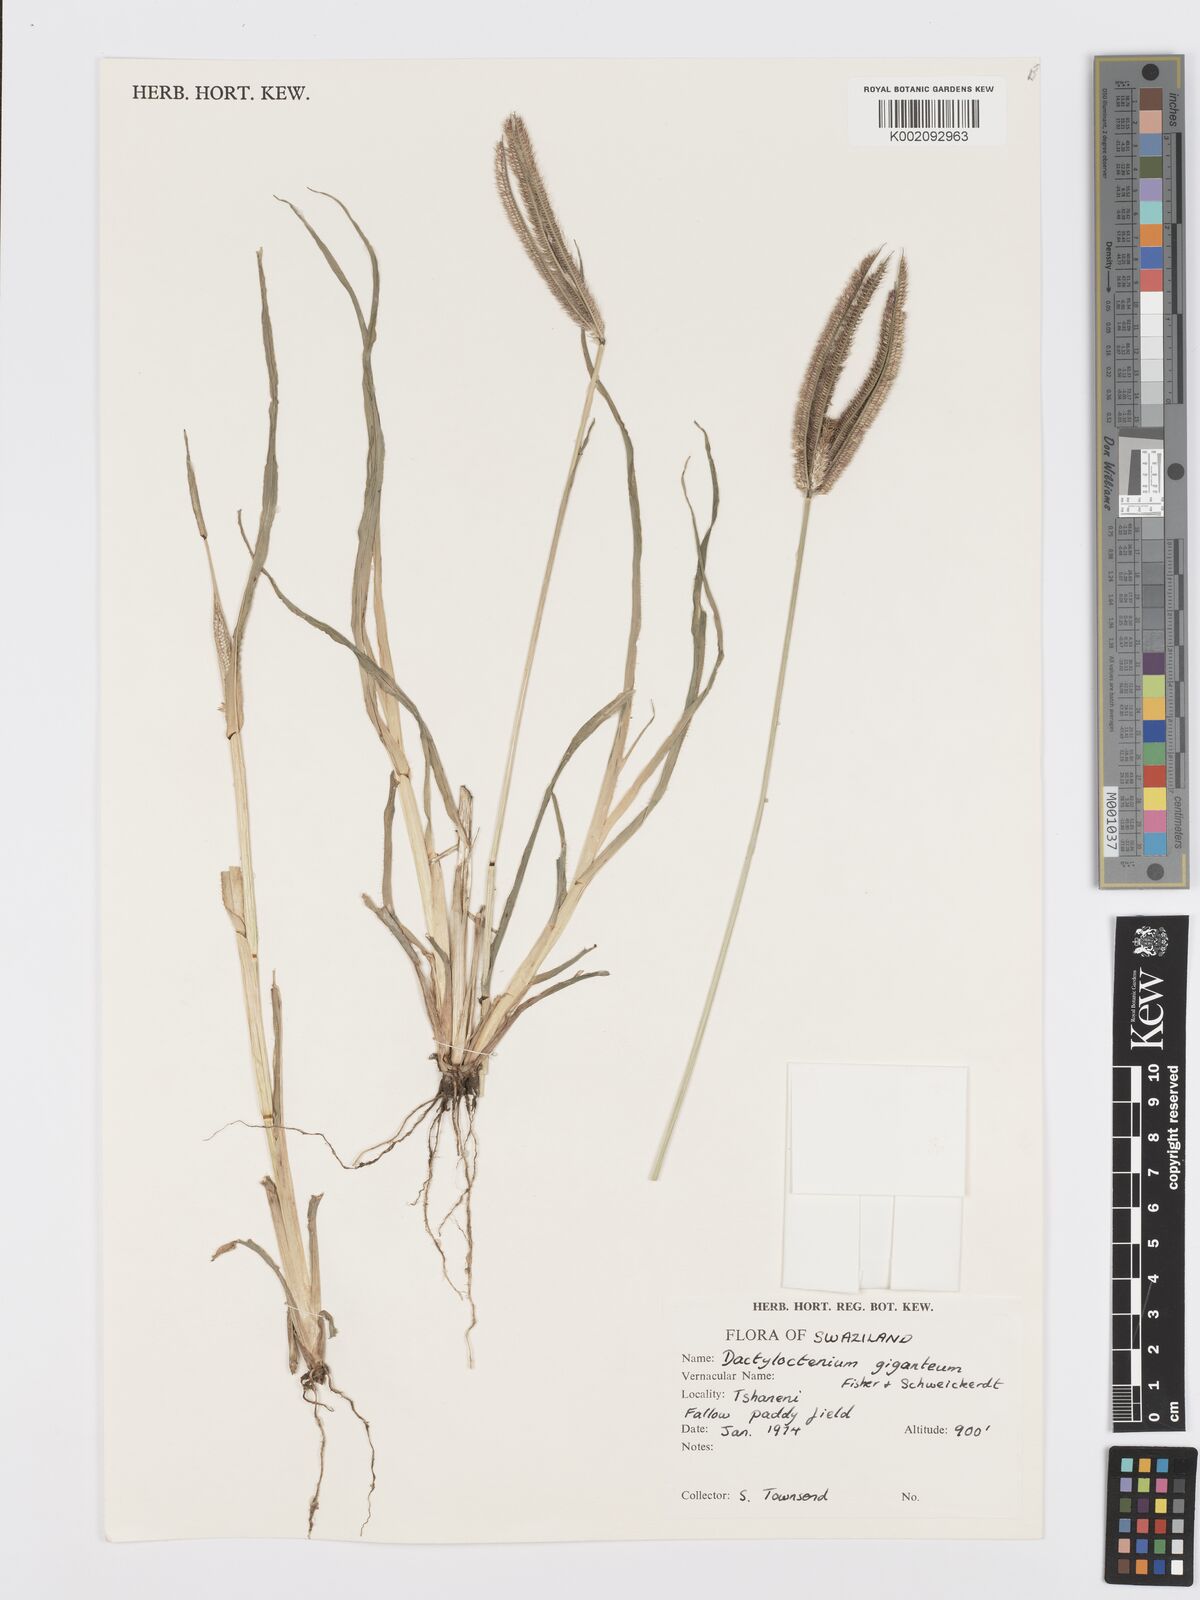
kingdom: Plantae
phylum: Tracheophyta
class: Liliopsida
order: Poales
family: Poaceae
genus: Dactyloctenium
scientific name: Dactyloctenium giganteum
